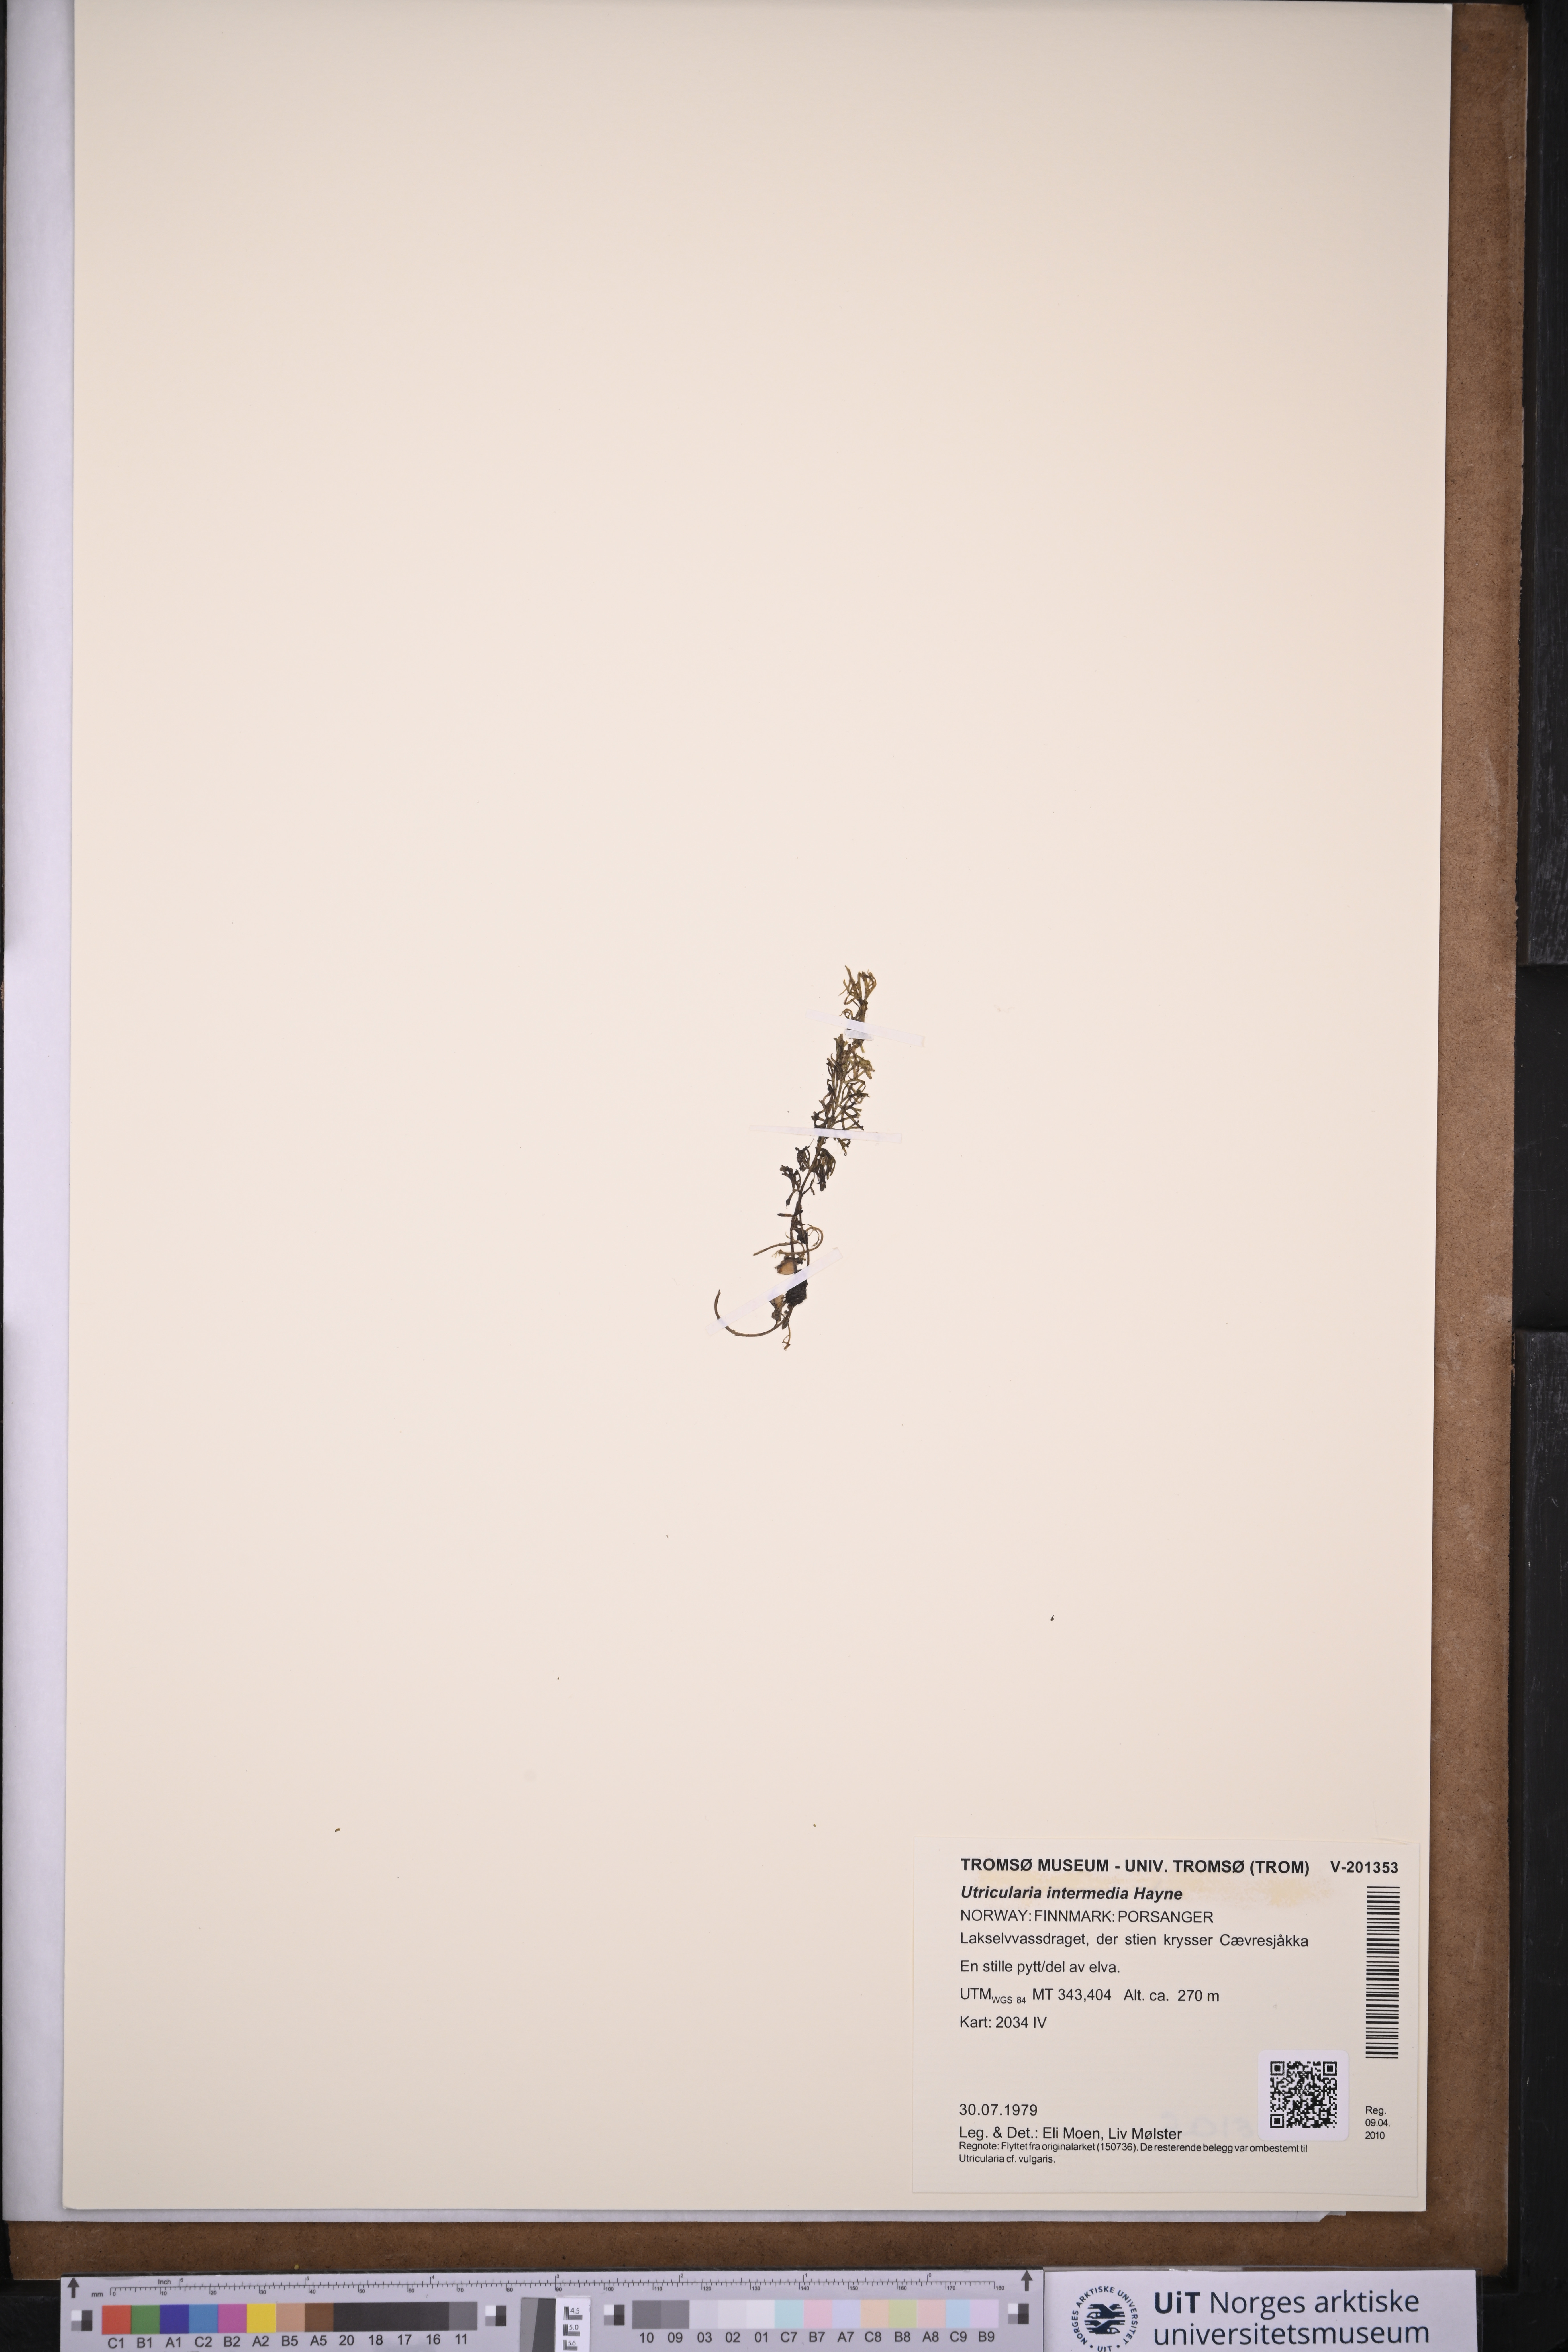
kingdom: Plantae
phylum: Tracheophyta
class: Magnoliopsida
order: Lamiales
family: Lentibulariaceae
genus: Utricularia
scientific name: Utricularia intermedia
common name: Intermediate bladderwort
